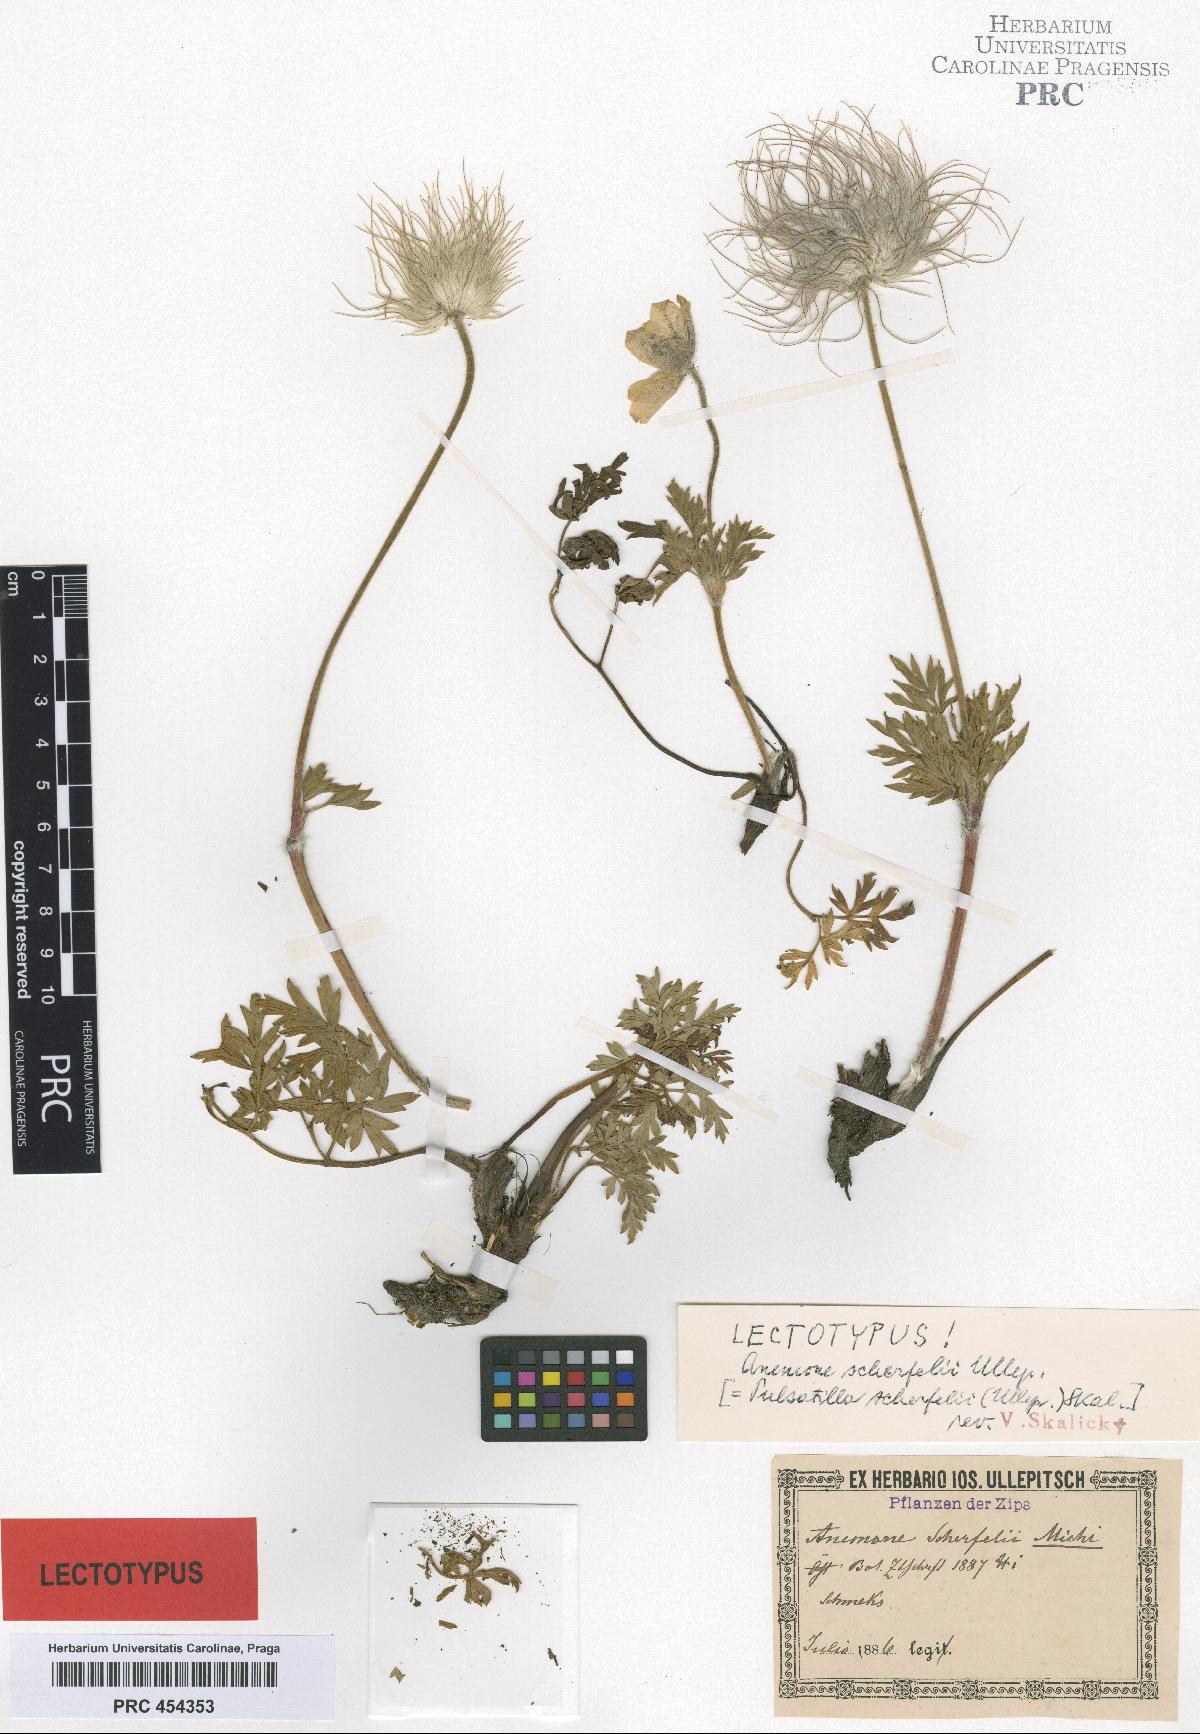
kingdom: Plantae
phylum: Tracheophyta
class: Magnoliopsida
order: Ranunculales
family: Ranunculaceae
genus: Pulsatilla
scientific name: Pulsatilla alpina
